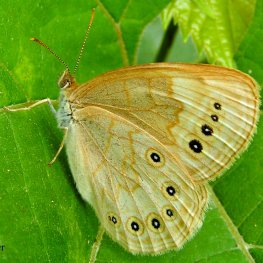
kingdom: Animalia
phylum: Arthropoda
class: Insecta
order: Lepidoptera
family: Nymphalidae
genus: Lethe
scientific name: Lethe eurydice
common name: Eyed Brown
